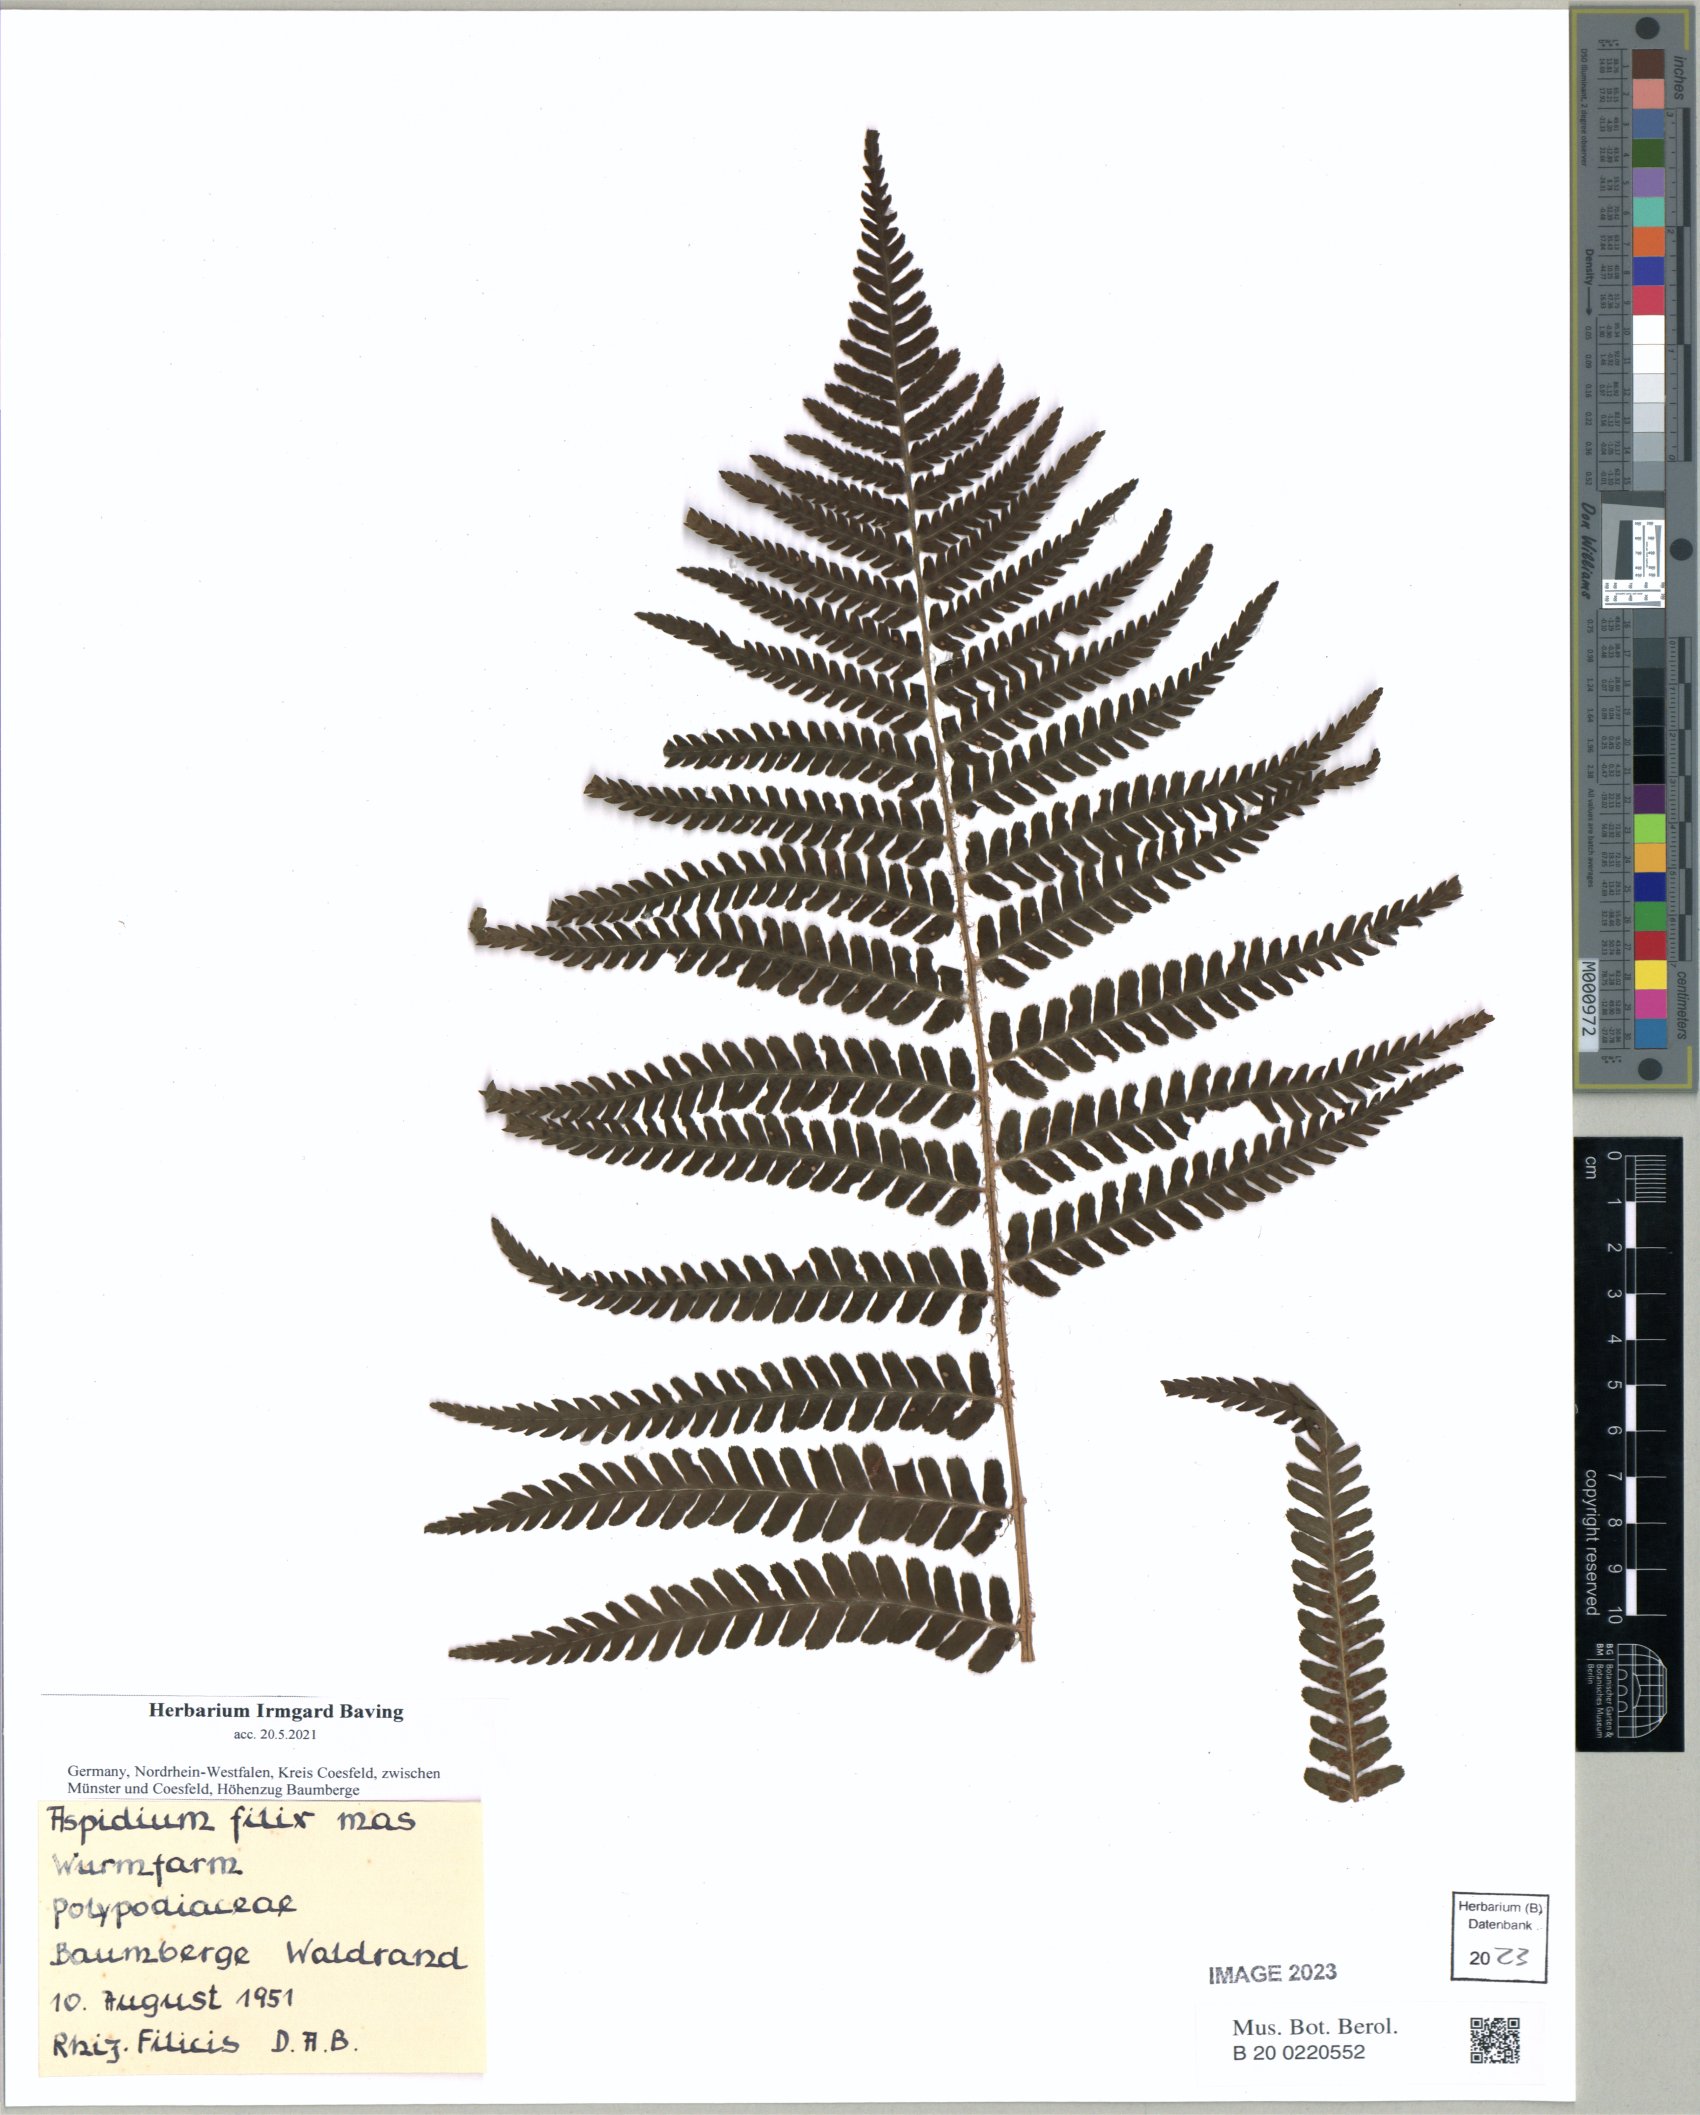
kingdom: Plantae
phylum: Tracheophyta
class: Polypodiopsida
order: Polypodiales
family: Dryopteridaceae
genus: Dryopteris
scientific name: Dryopteris filix-mas
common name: Male fern
